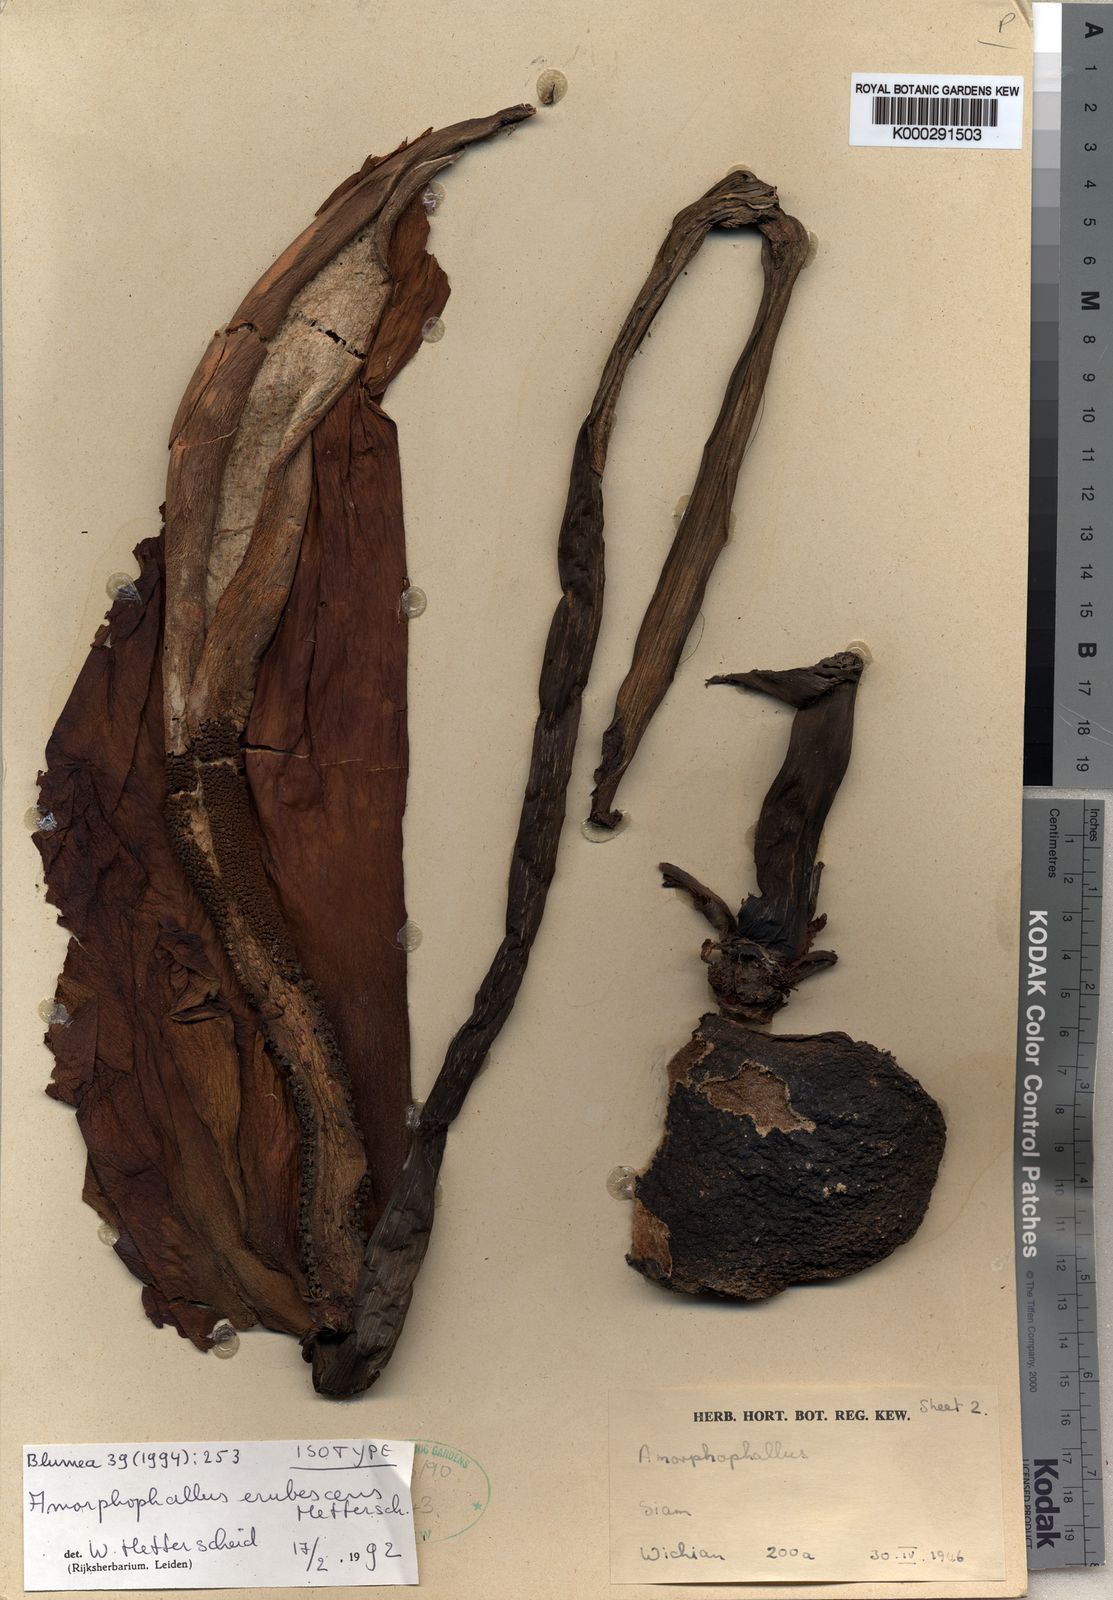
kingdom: Plantae
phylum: Tracheophyta
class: Liliopsida
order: Alismatales
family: Araceae
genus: Amorphophallus
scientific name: Amorphophallus muelleri
